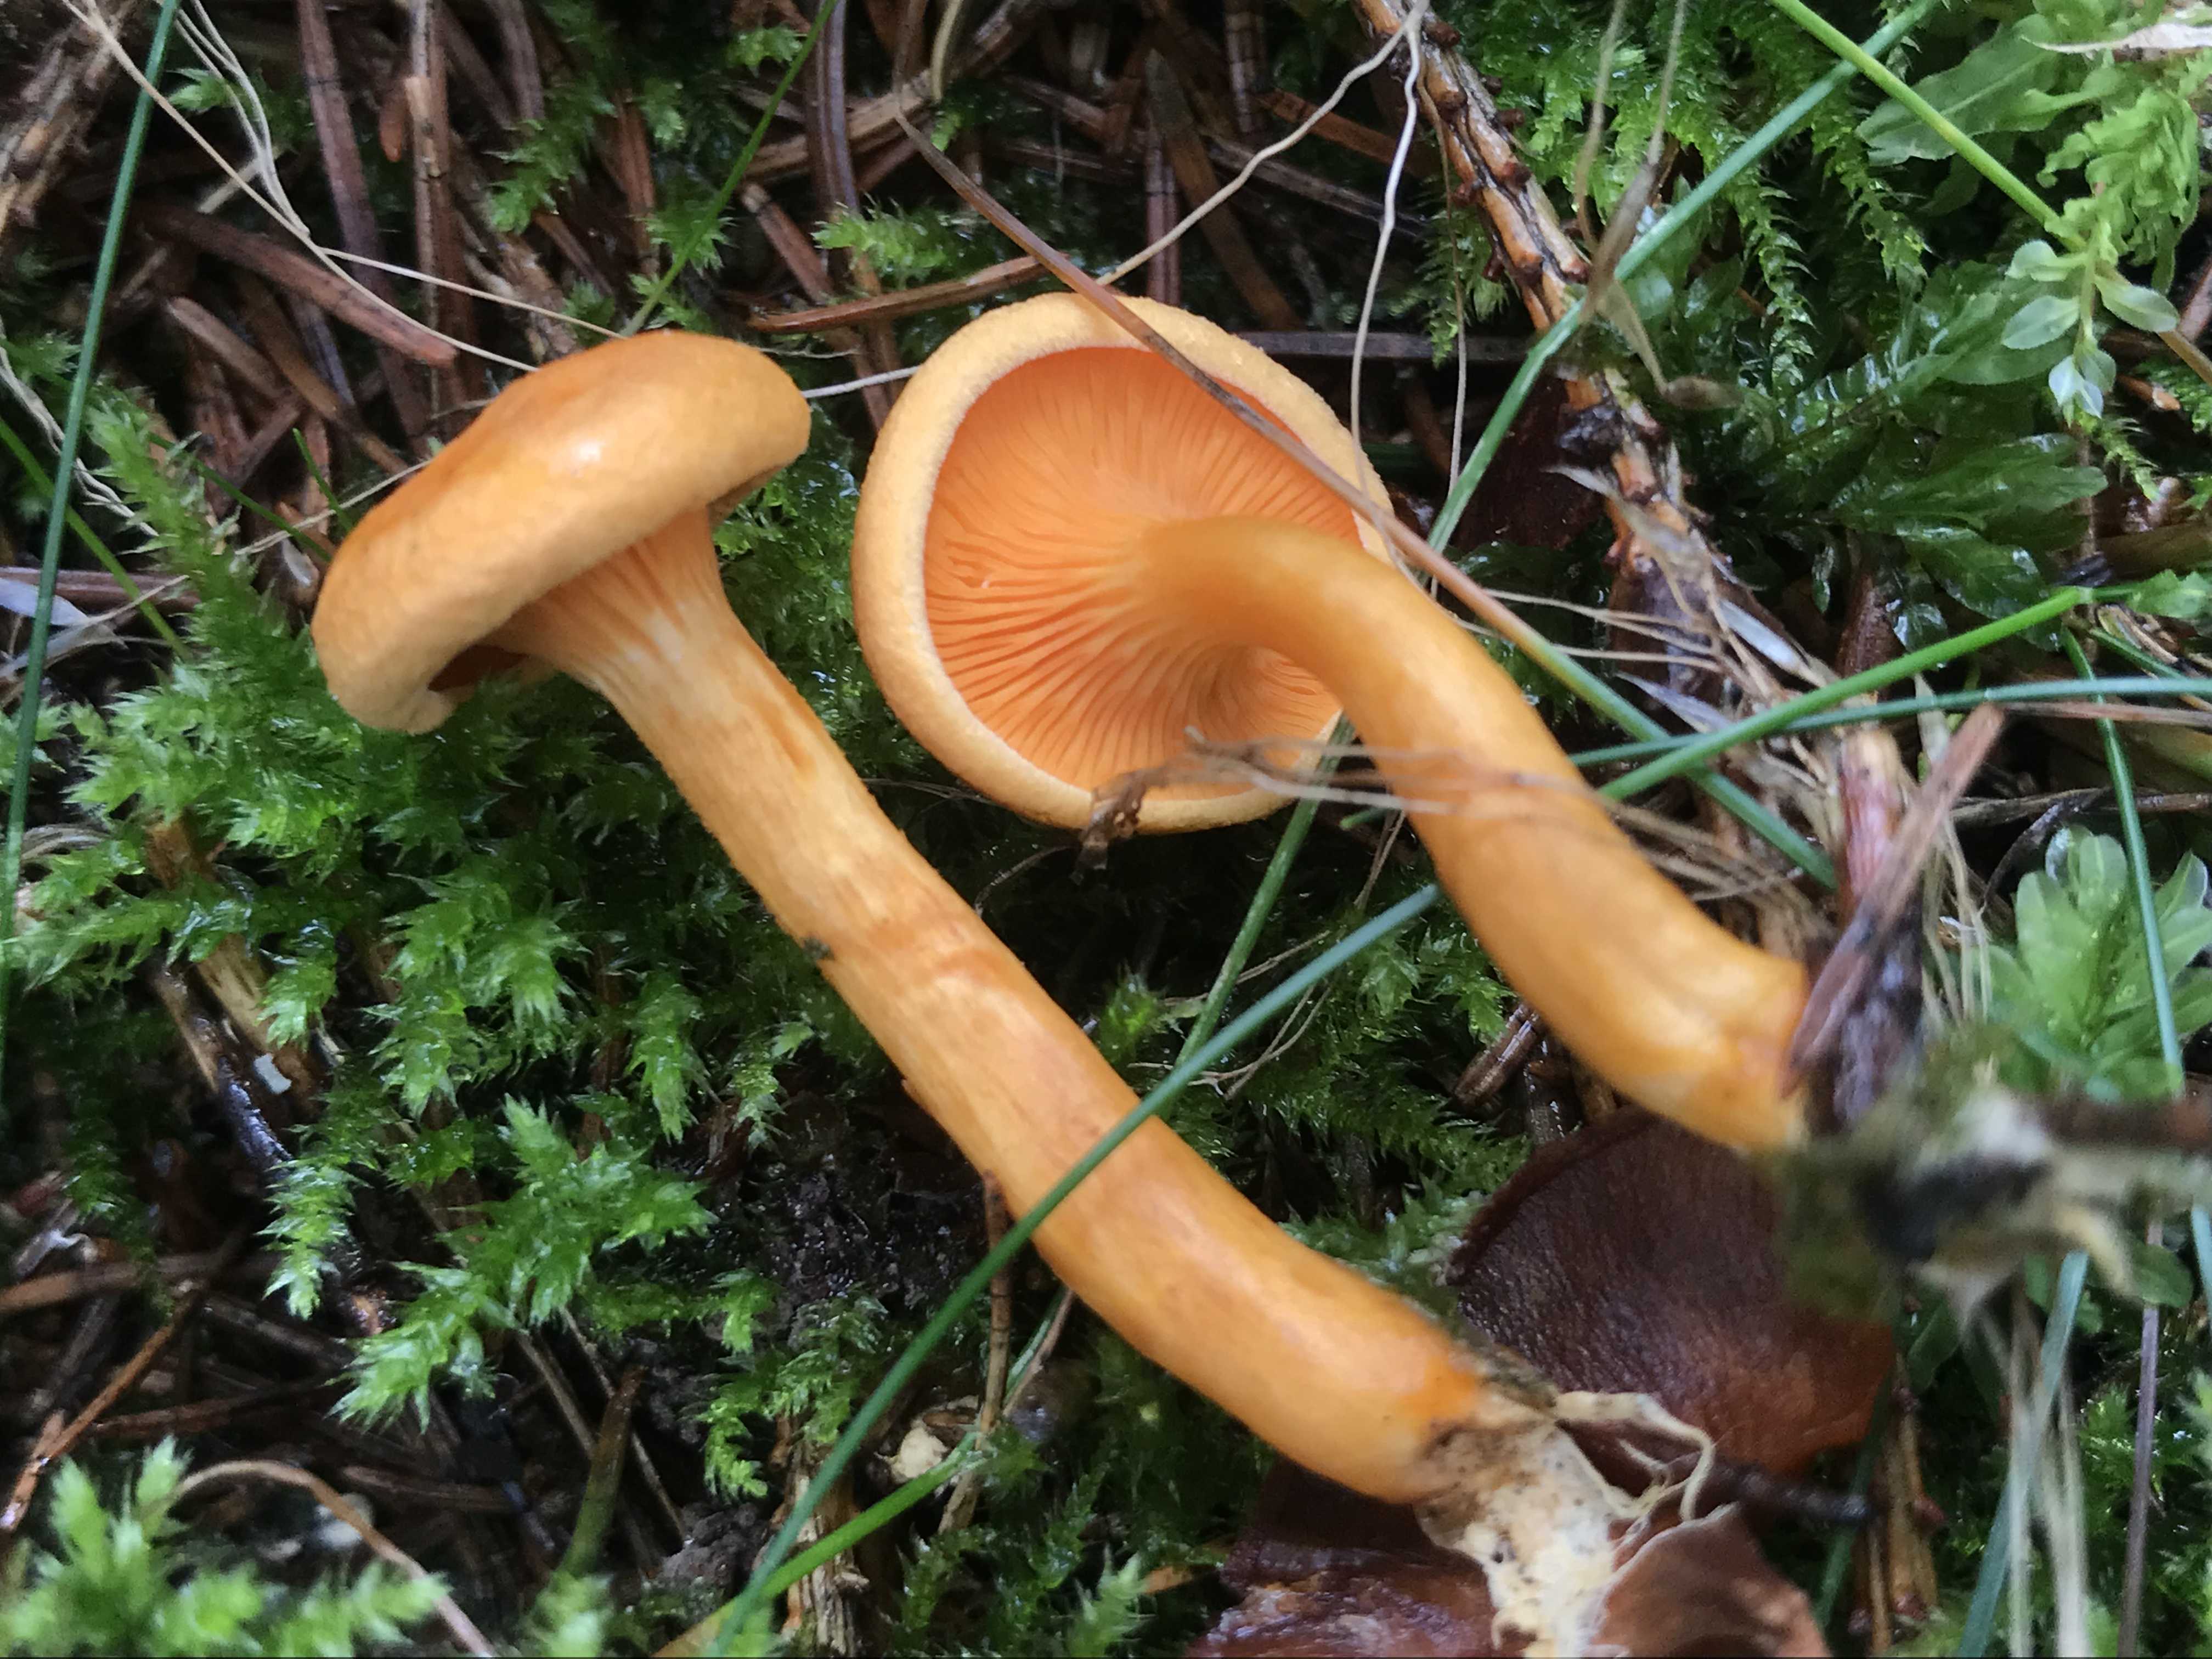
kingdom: Fungi
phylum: Basidiomycota
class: Agaricomycetes
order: Boletales
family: Hygrophoropsidaceae
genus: Hygrophoropsis
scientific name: Hygrophoropsis aurantiaca
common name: almindelig orangekantarel
